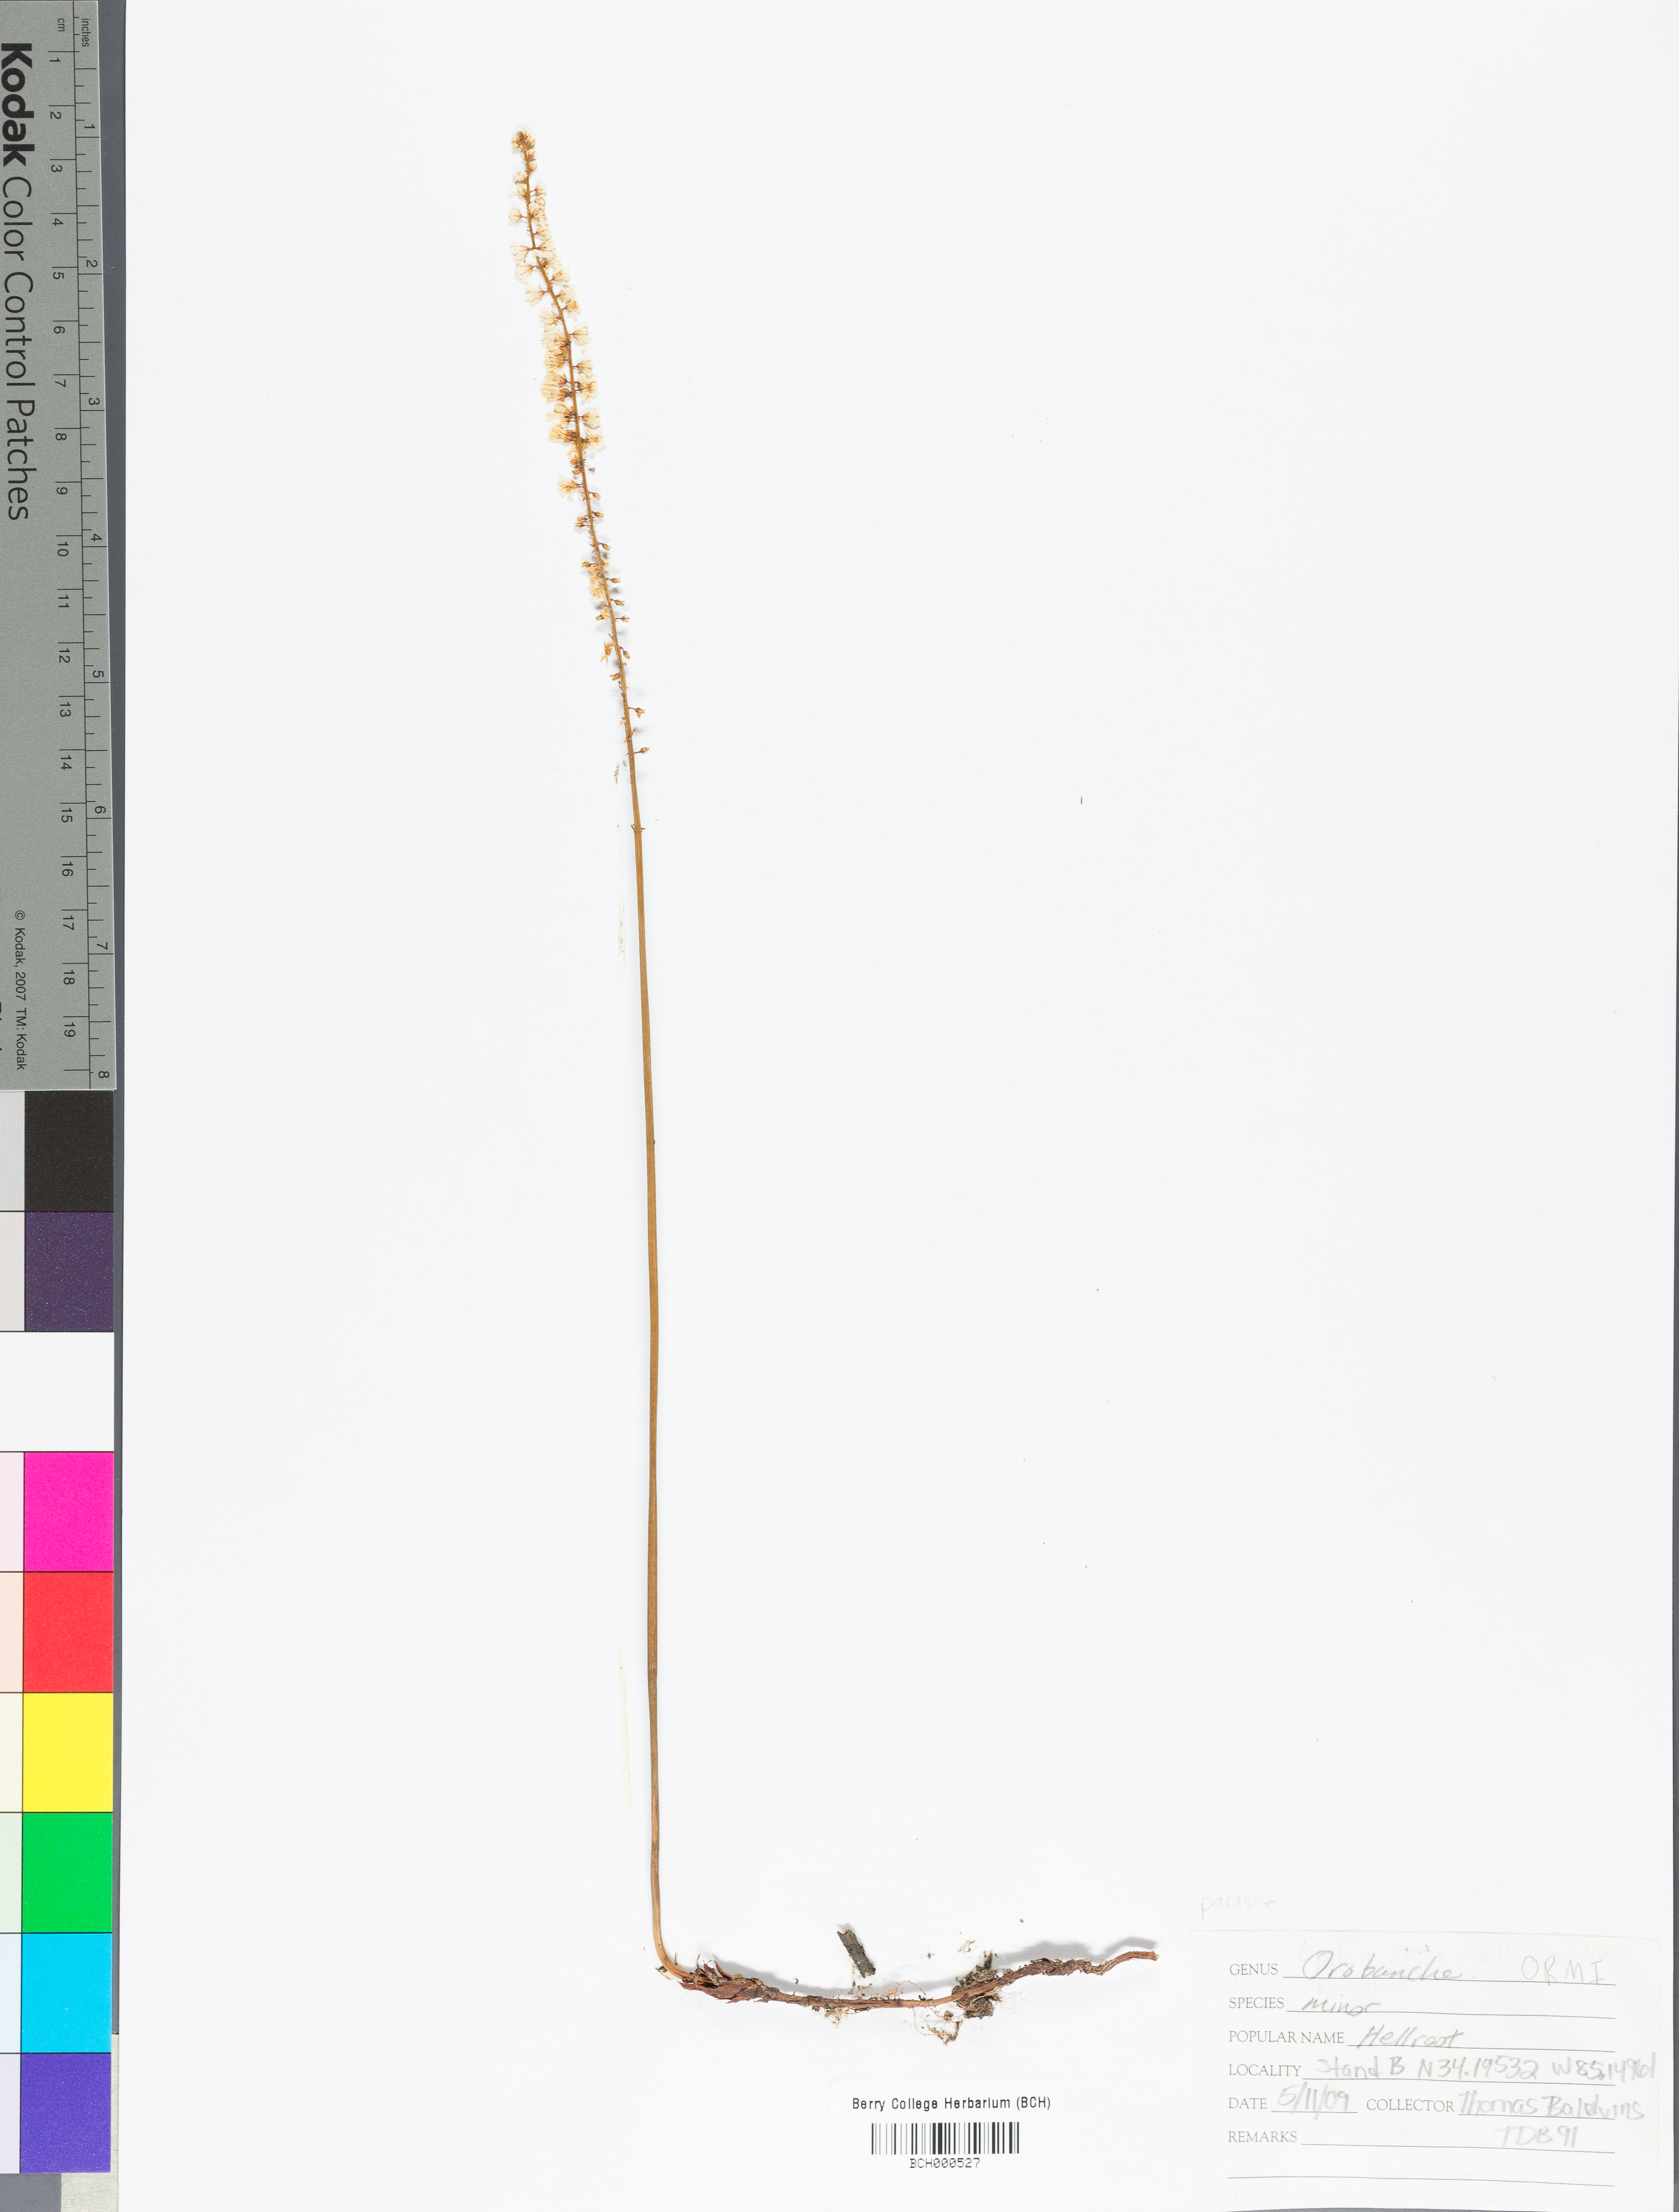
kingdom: Plantae
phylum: Tracheophyta
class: Magnoliopsida
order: Lamiales
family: Orobanchaceae
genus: Orobanche
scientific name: Orobanche minor
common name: Common broomrape
